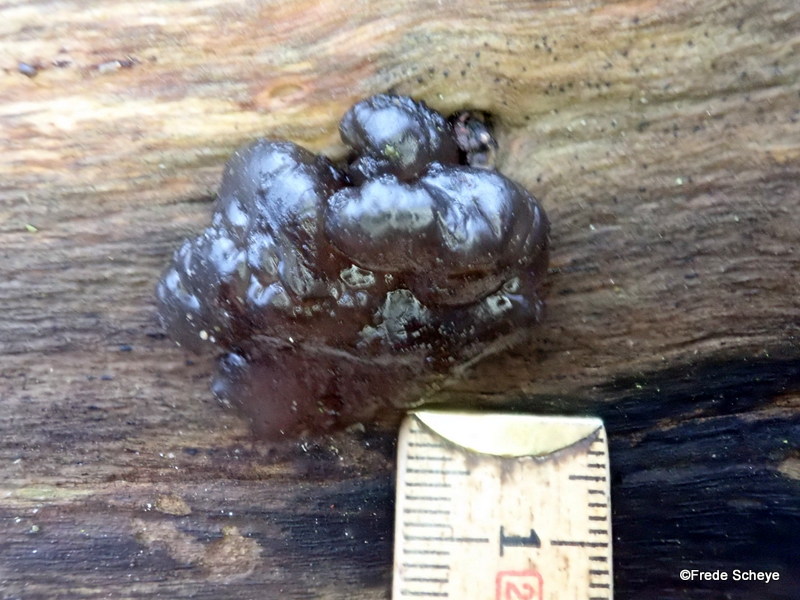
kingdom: Fungi
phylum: Basidiomycota
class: Agaricomycetes
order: Auriculariales
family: Auriculariaceae
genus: Exidia
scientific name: Exidia nigricans
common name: almindelig bævretop
